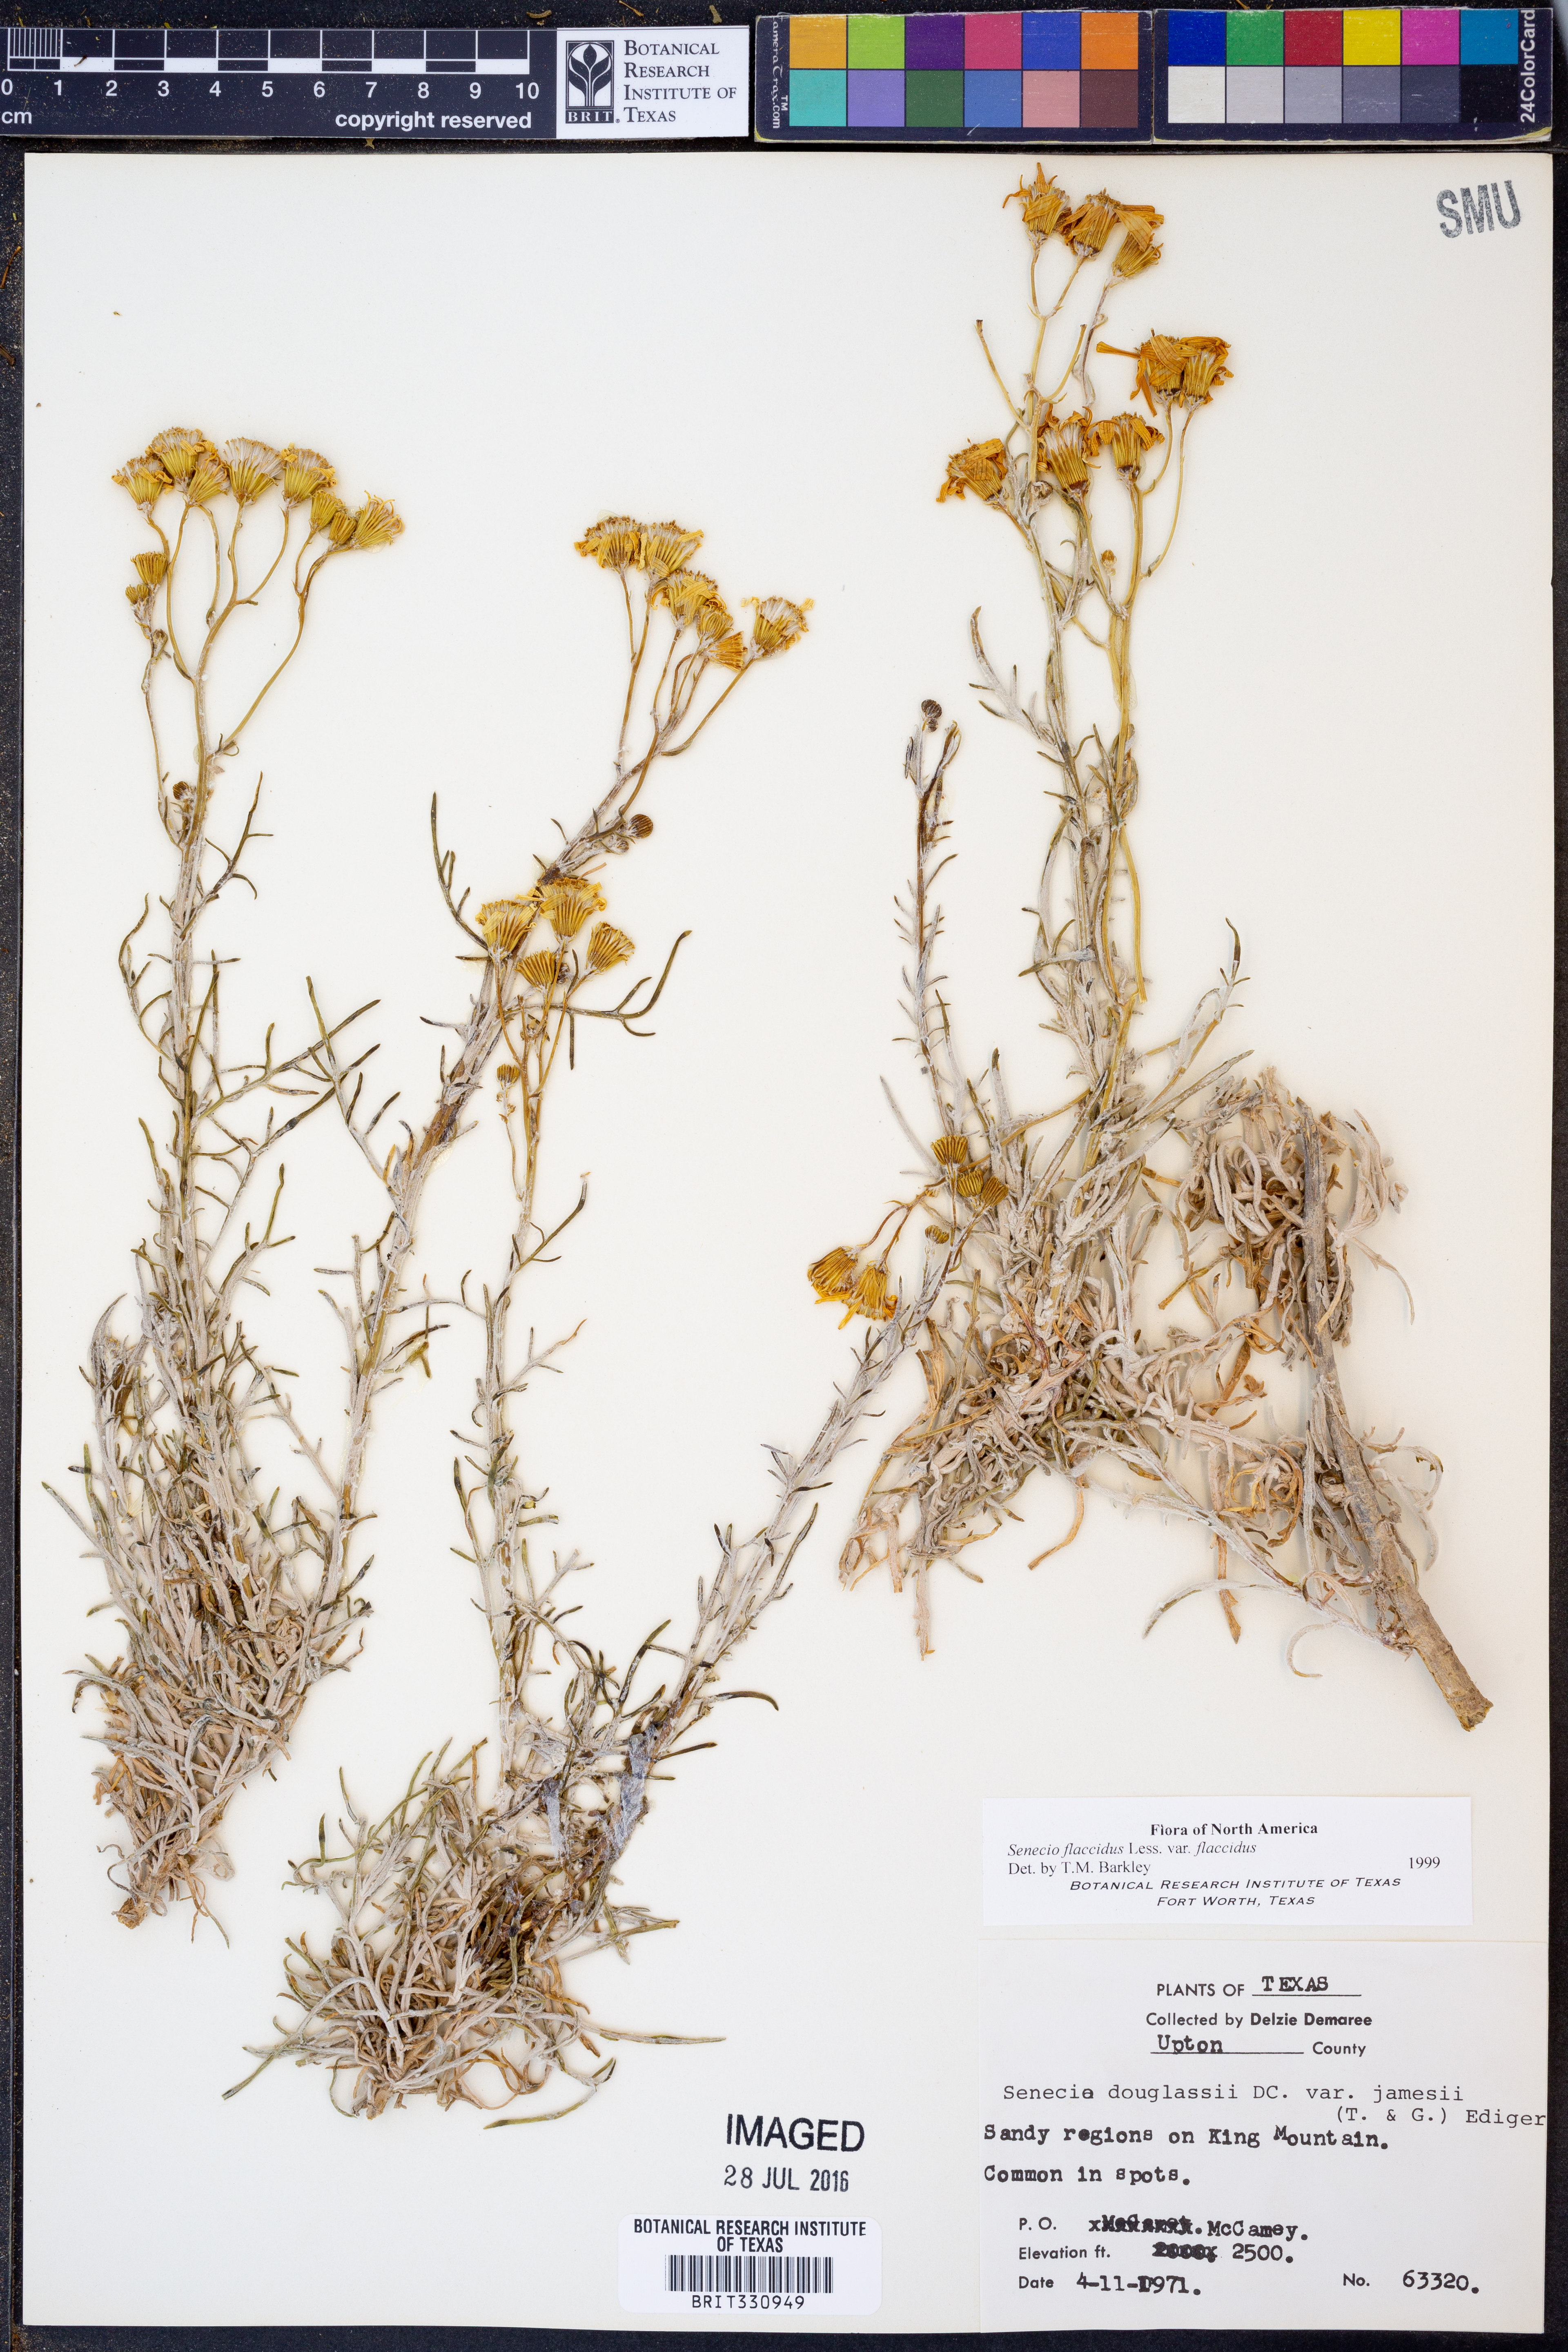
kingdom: Plantae
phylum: Tracheophyta
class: Magnoliopsida
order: Asterales
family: Asteraceae
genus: Senecio
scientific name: Senecio flaccidus
